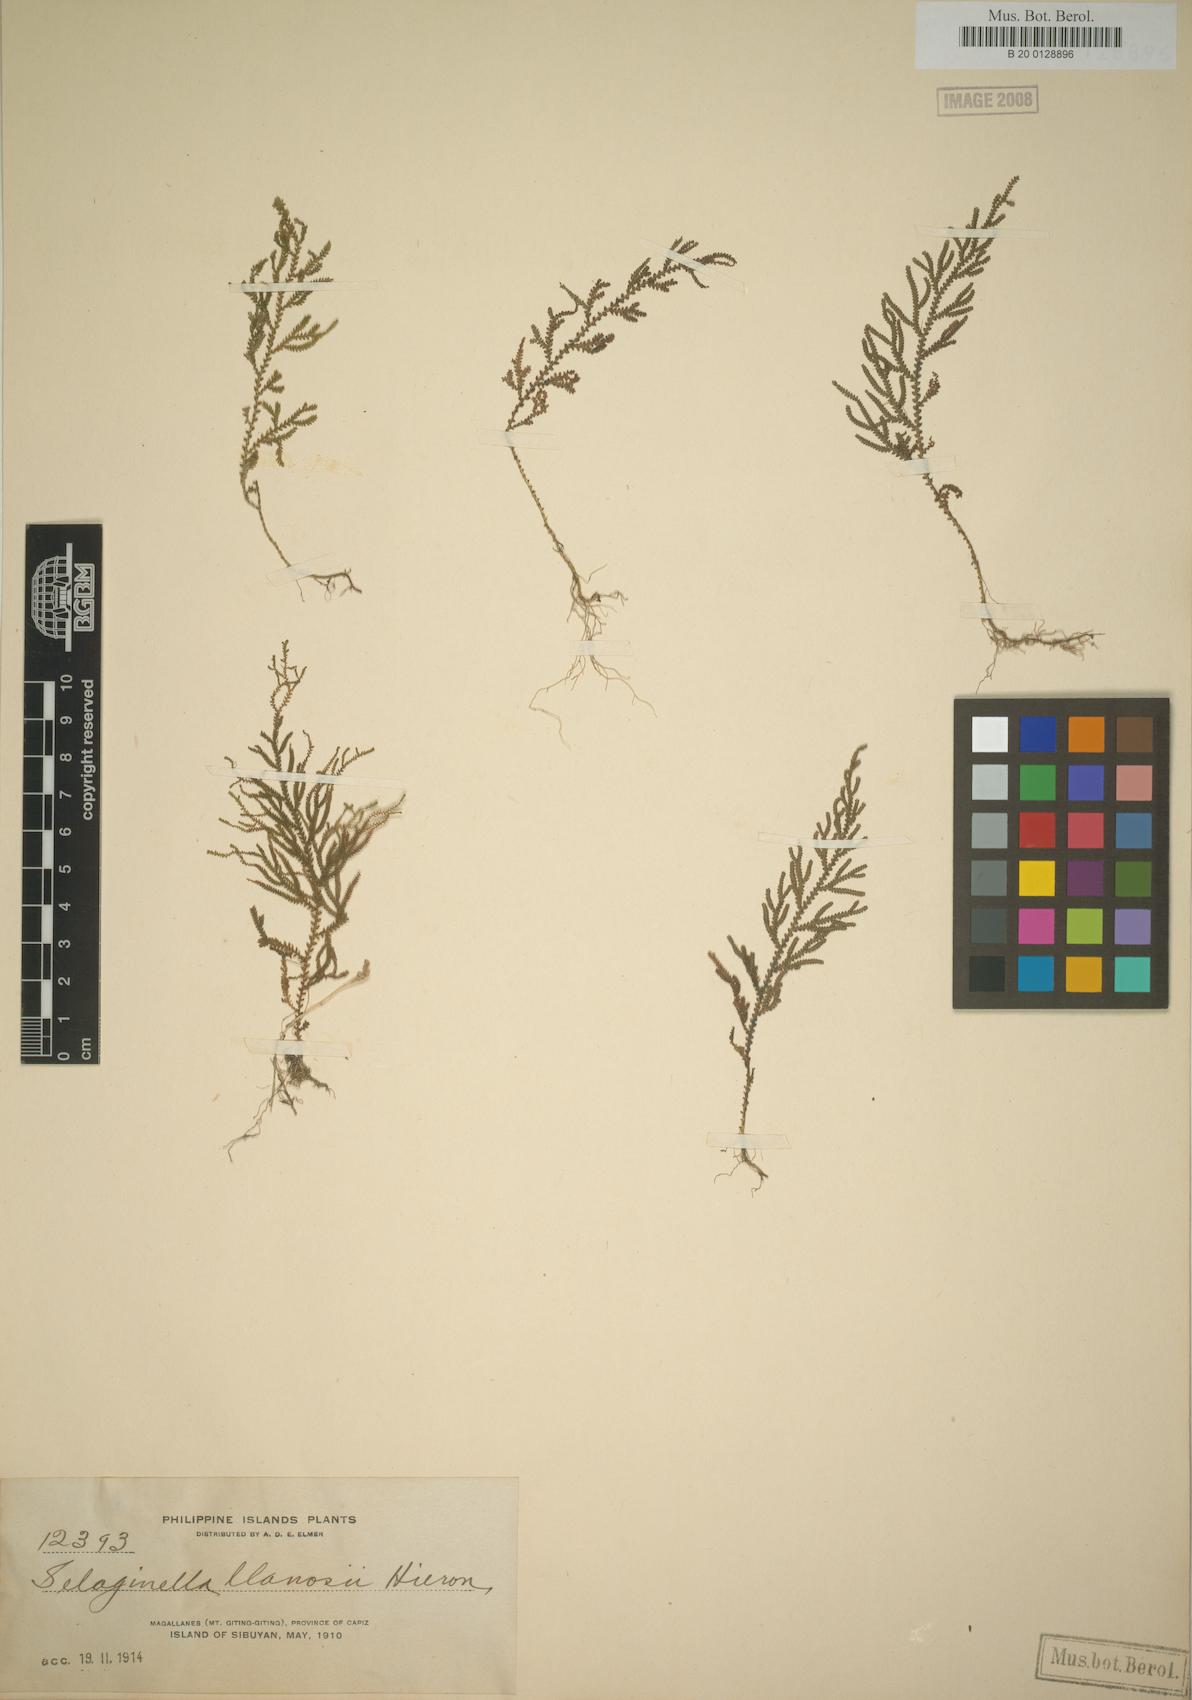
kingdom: Plantae
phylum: Tracheophyta
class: Lycopodiopsida
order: Selaginellales
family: Selaginellaceae
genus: Selaginella
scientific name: Selaginella llanosii
